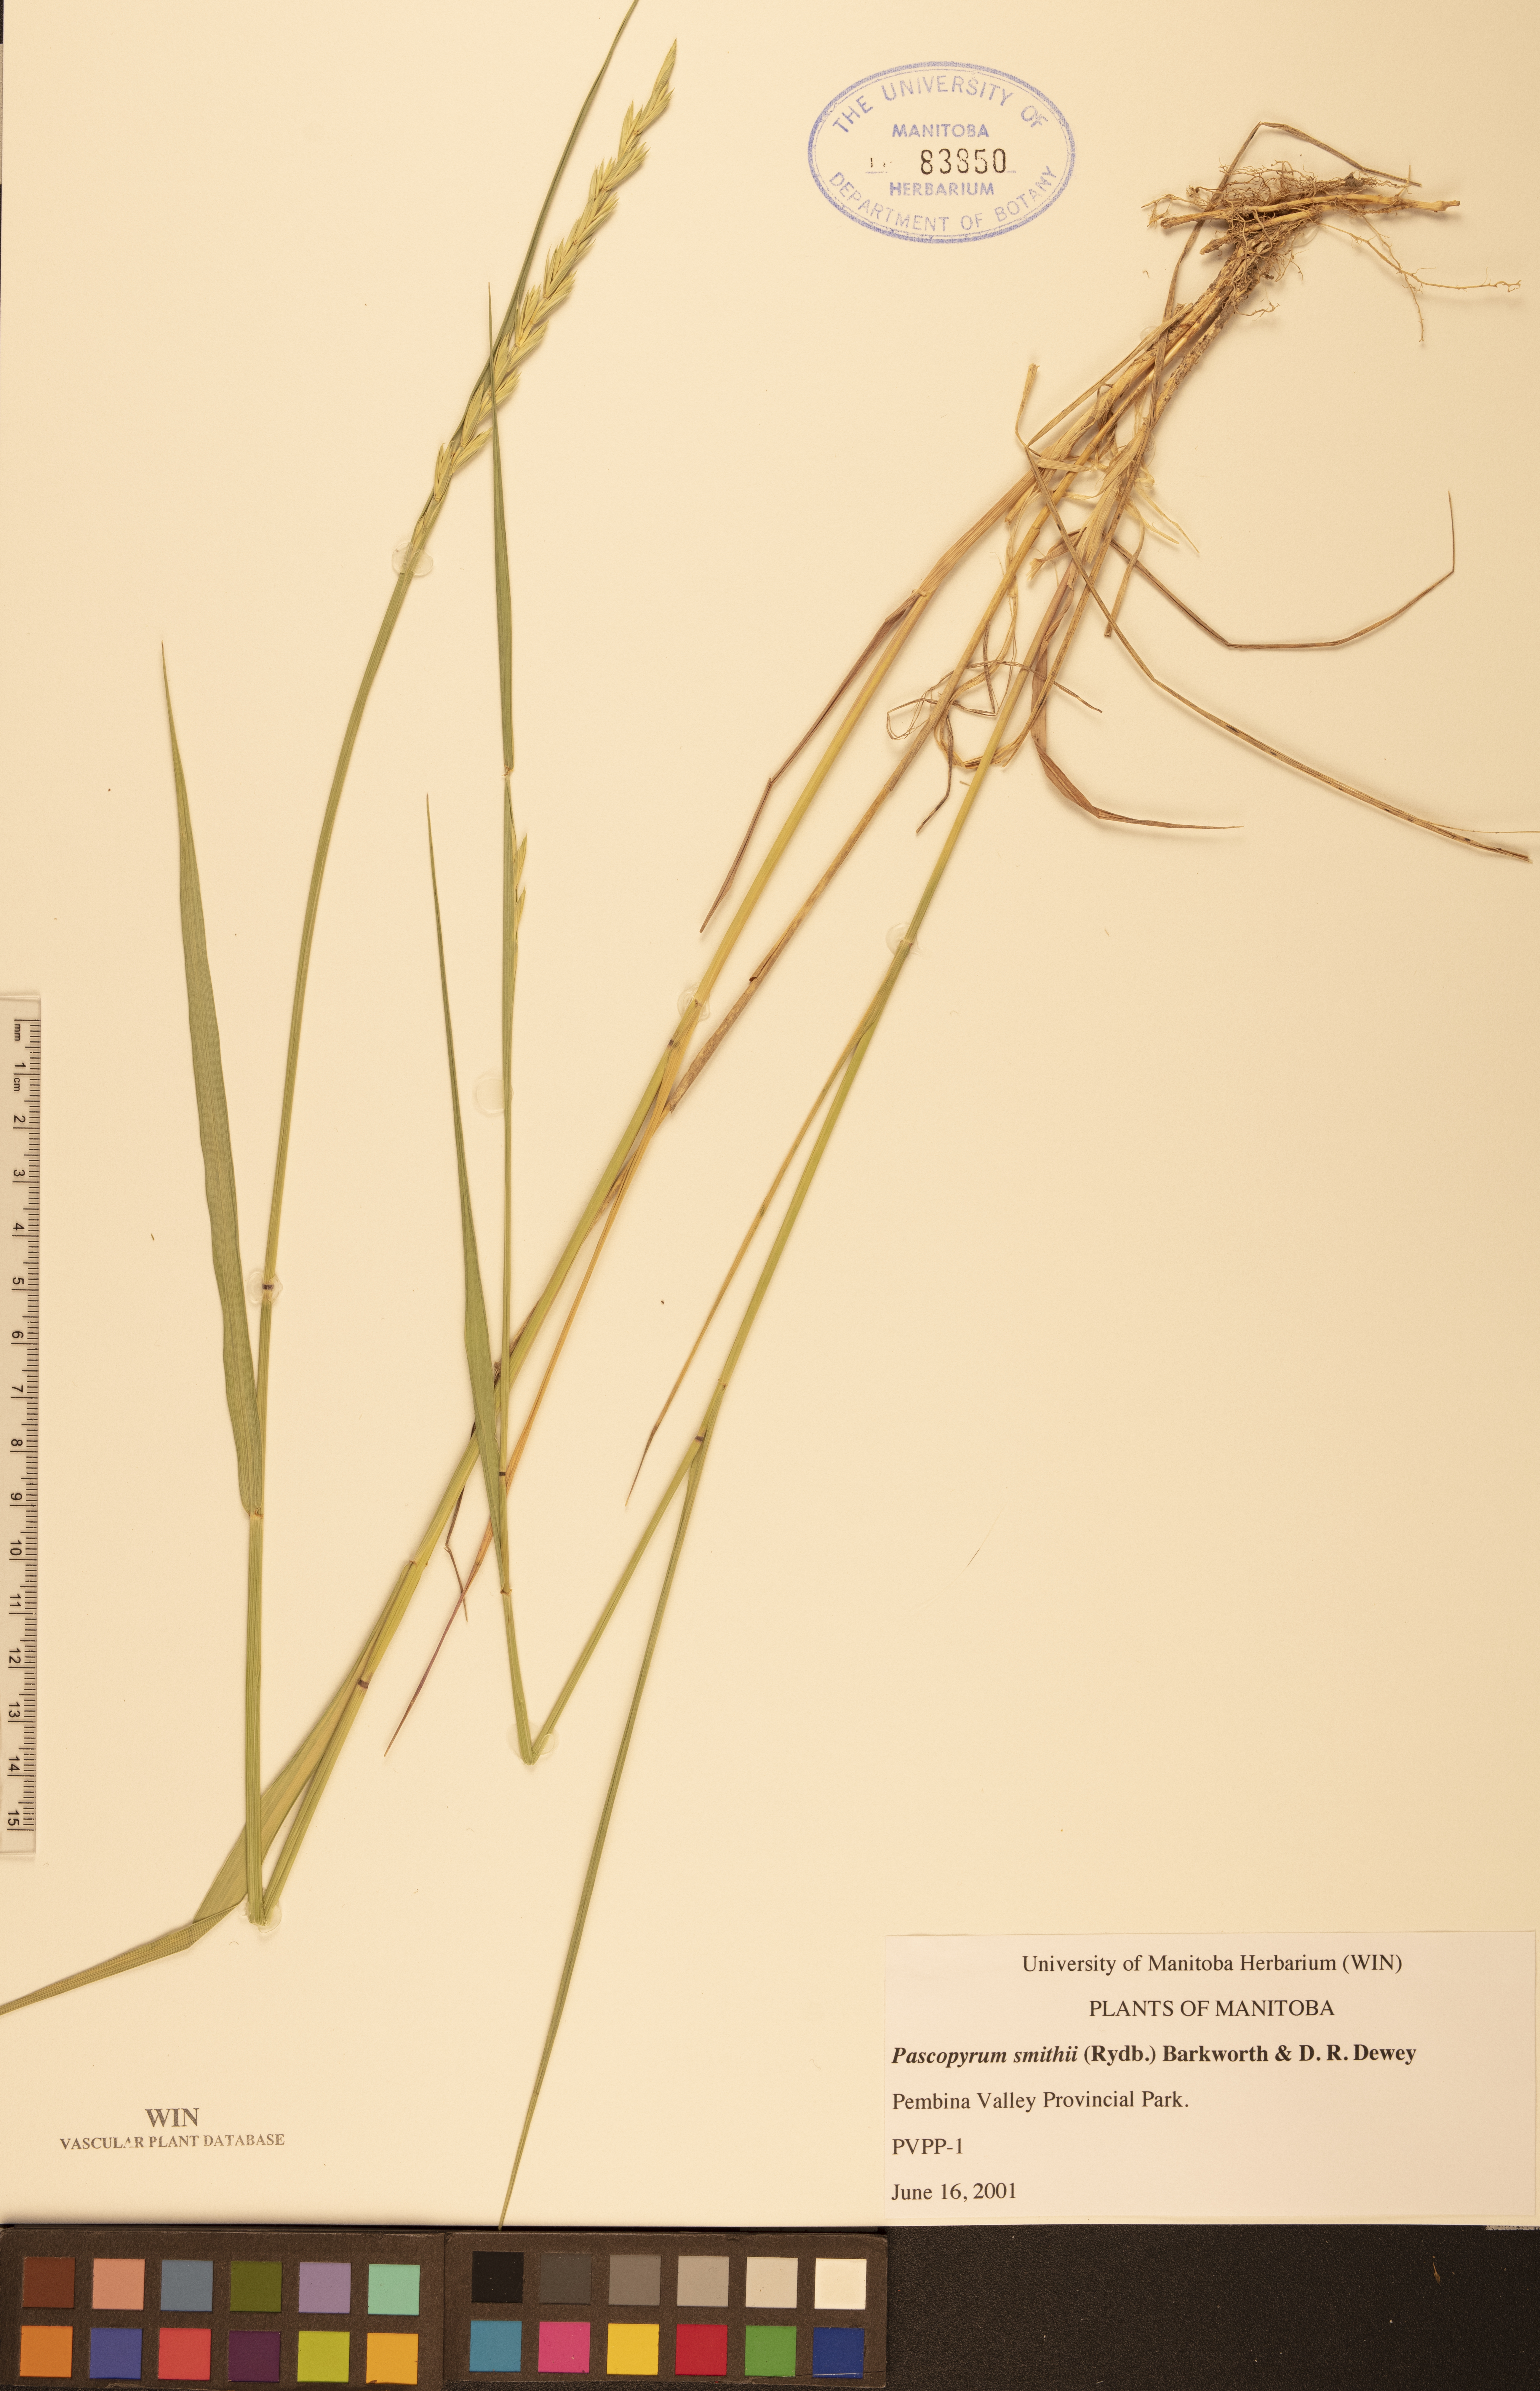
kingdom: Plantae
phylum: Tracheophyta
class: Liliopsida
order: Poales
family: Poaceae
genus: Elymus
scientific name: Elymus smithii
